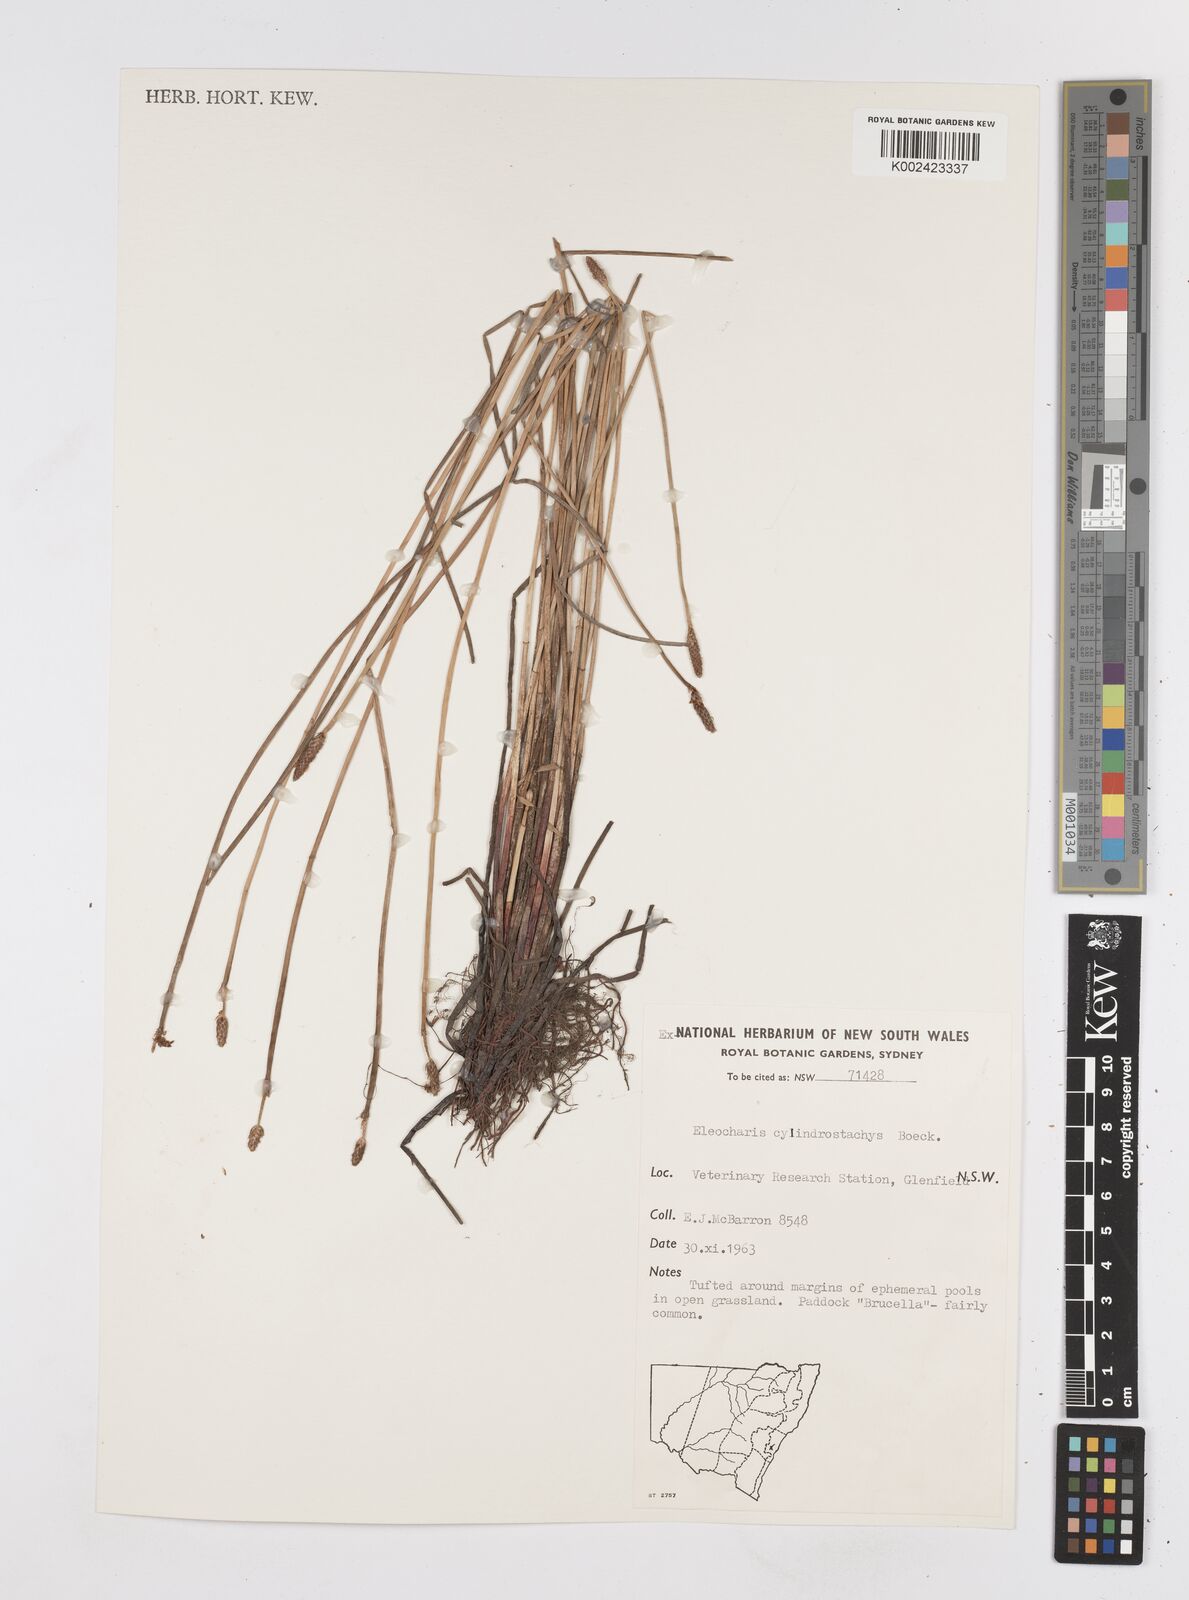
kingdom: Plantae
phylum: Tracheophyta
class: Liliopsida
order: Poales
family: Cyperaceae
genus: Eleocharis
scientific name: Eleocharis cylindrostachys
